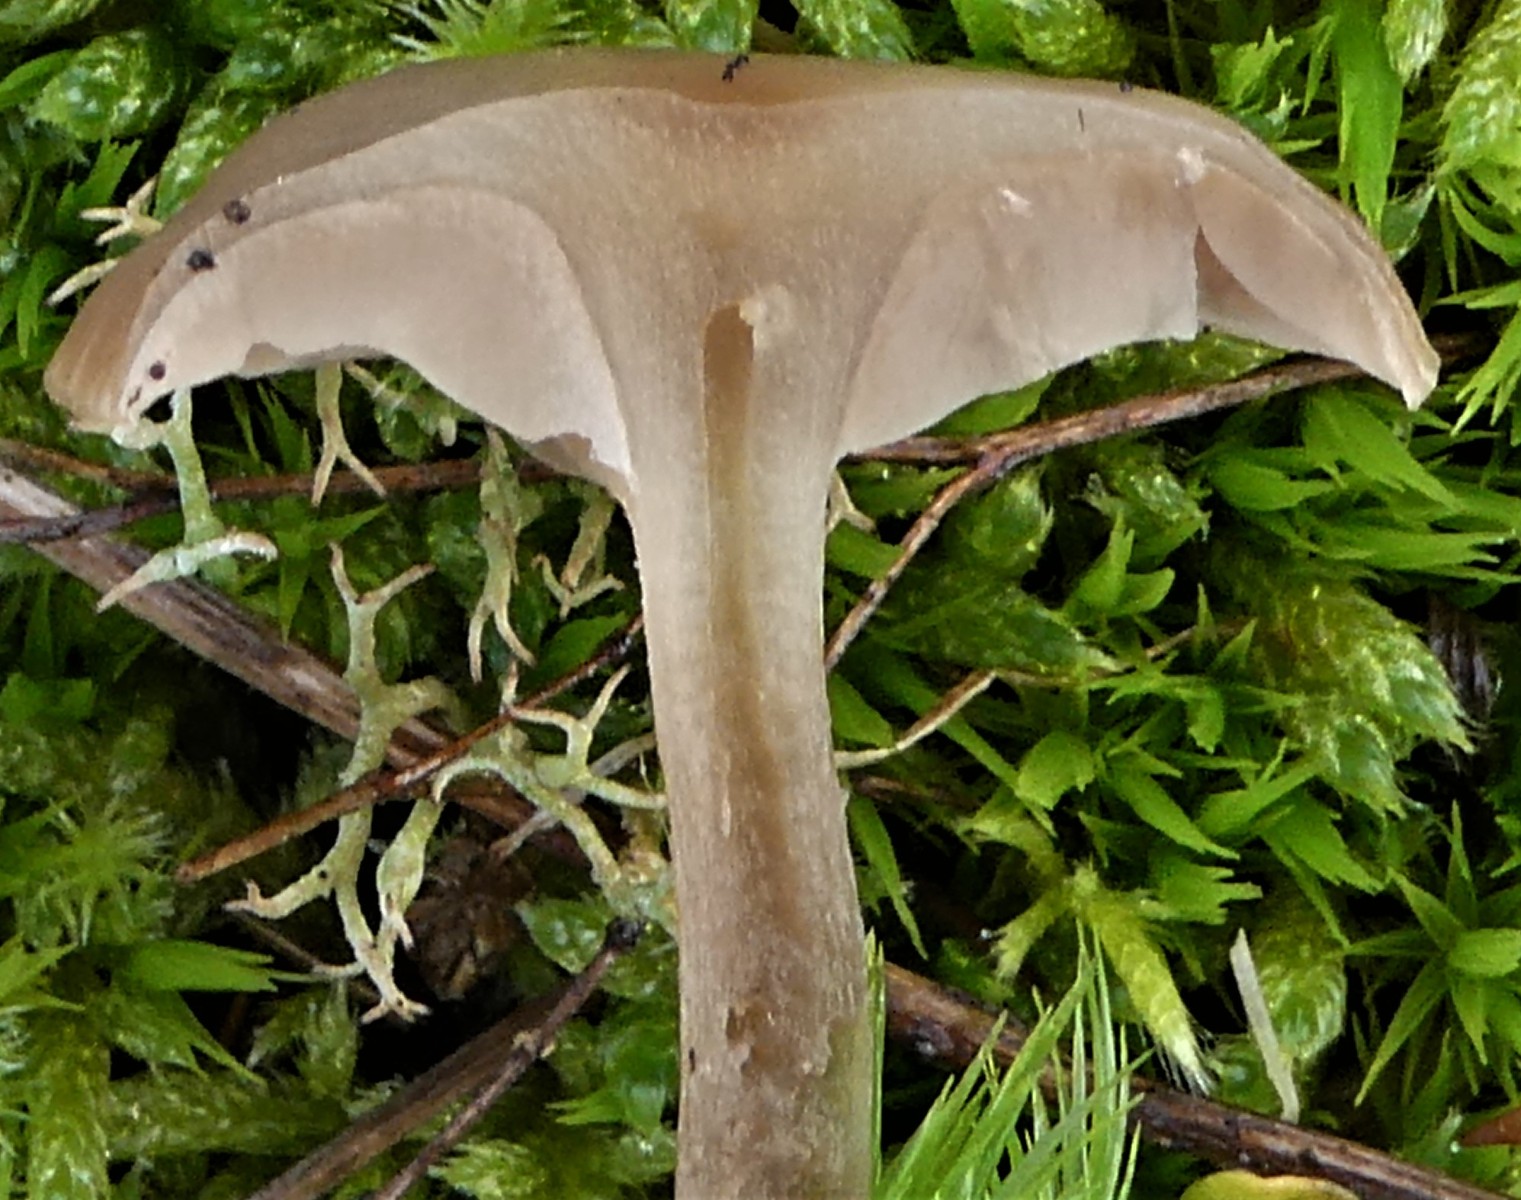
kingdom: Fungi
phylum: Basidiomycota
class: Agaricomycetes
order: Agaricales
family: Entolomataceae
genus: Entoloma
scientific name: Entoloma sericeum
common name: silkeglinsende rødblad
